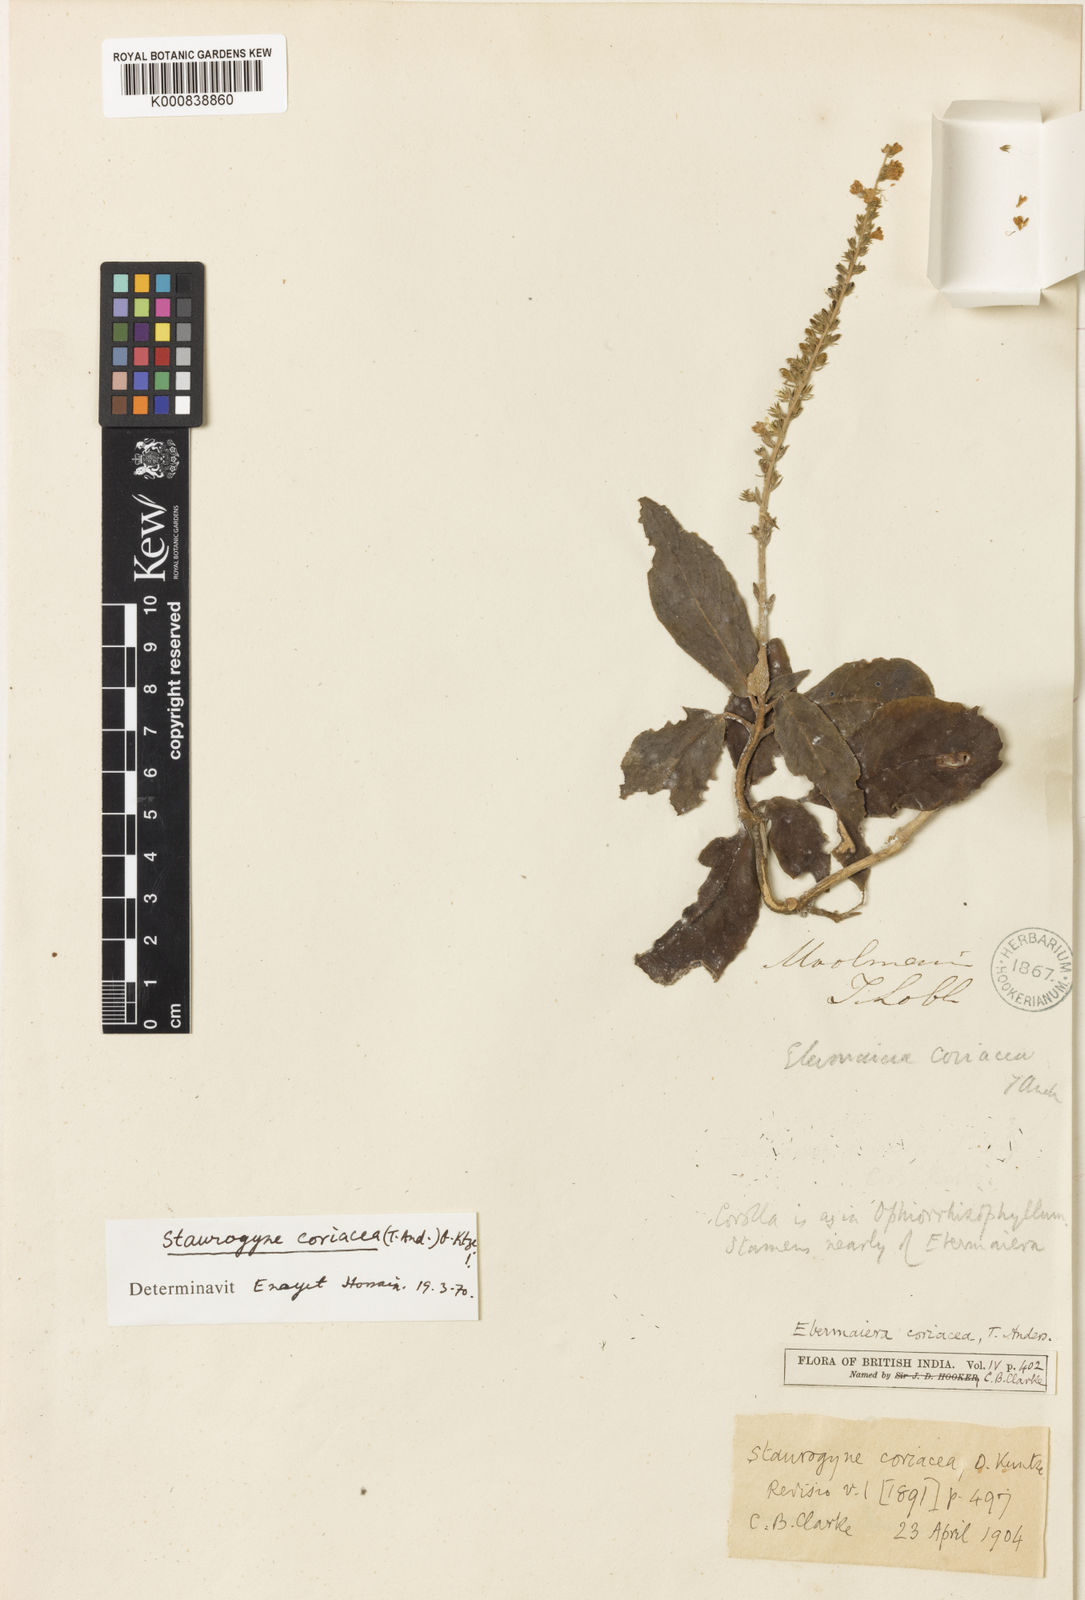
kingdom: Plantae
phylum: Tracheophyta
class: Magnoliopsida
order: Lamiales
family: Acanthaceae
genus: Staurogyne
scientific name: Staurogyne coriacea
